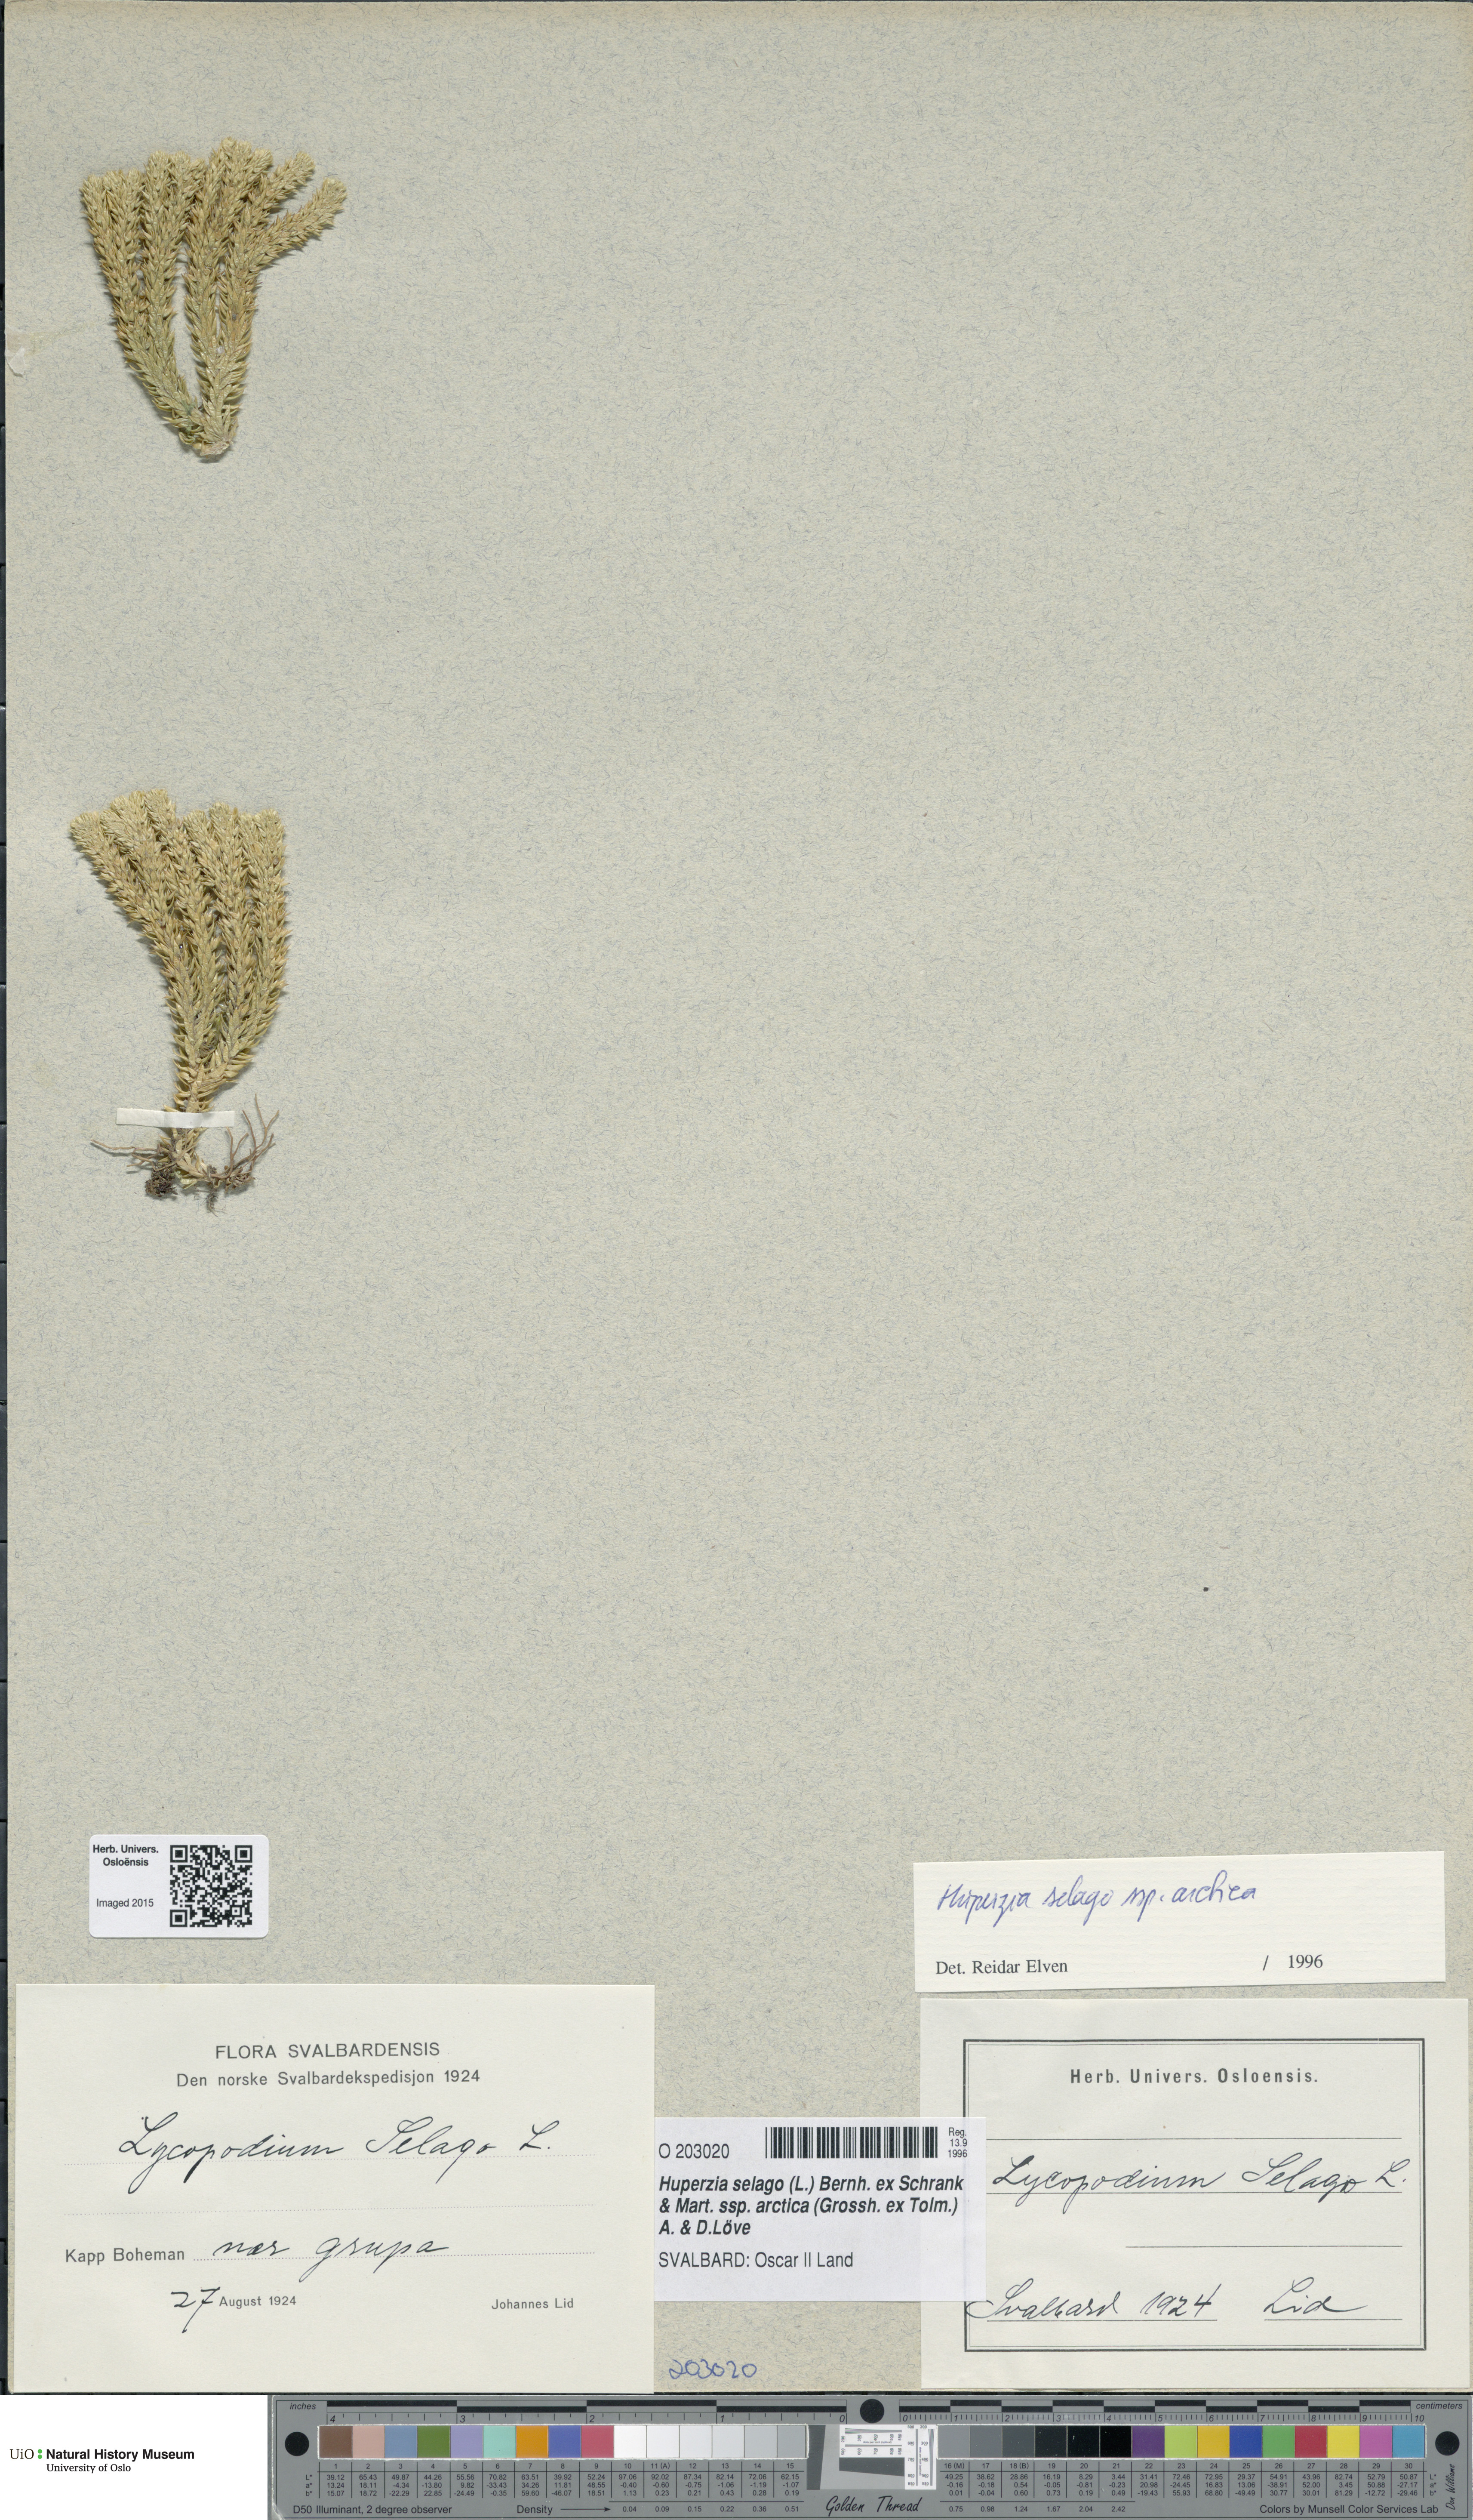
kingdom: Plantae
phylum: Tracheophyta
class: Lycopodiopsida
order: Lycopodiales
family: Lycopodiaceae
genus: Huperzia
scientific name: Huperzia selago
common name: Northern firmoss
